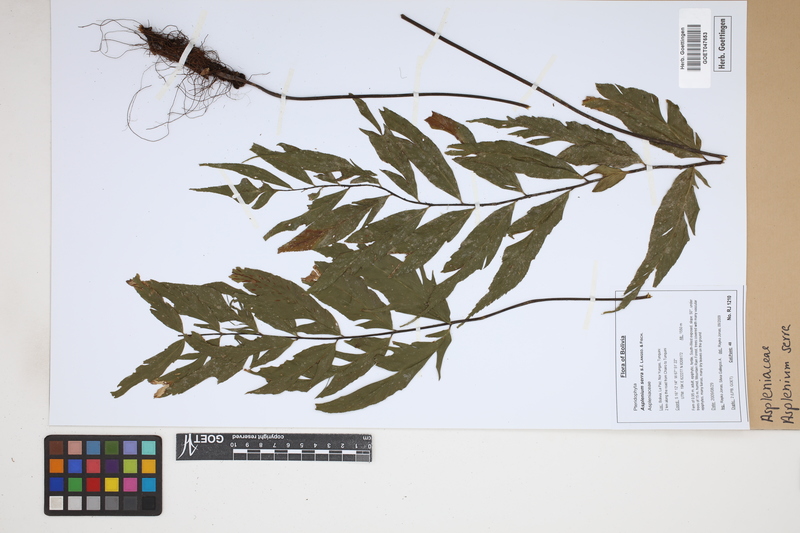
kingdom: Plantae
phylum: Tracheophyta
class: Polypodiopsida
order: Polypodiales
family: Aspleniaceae
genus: Asplenium
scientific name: Asplenium serra
